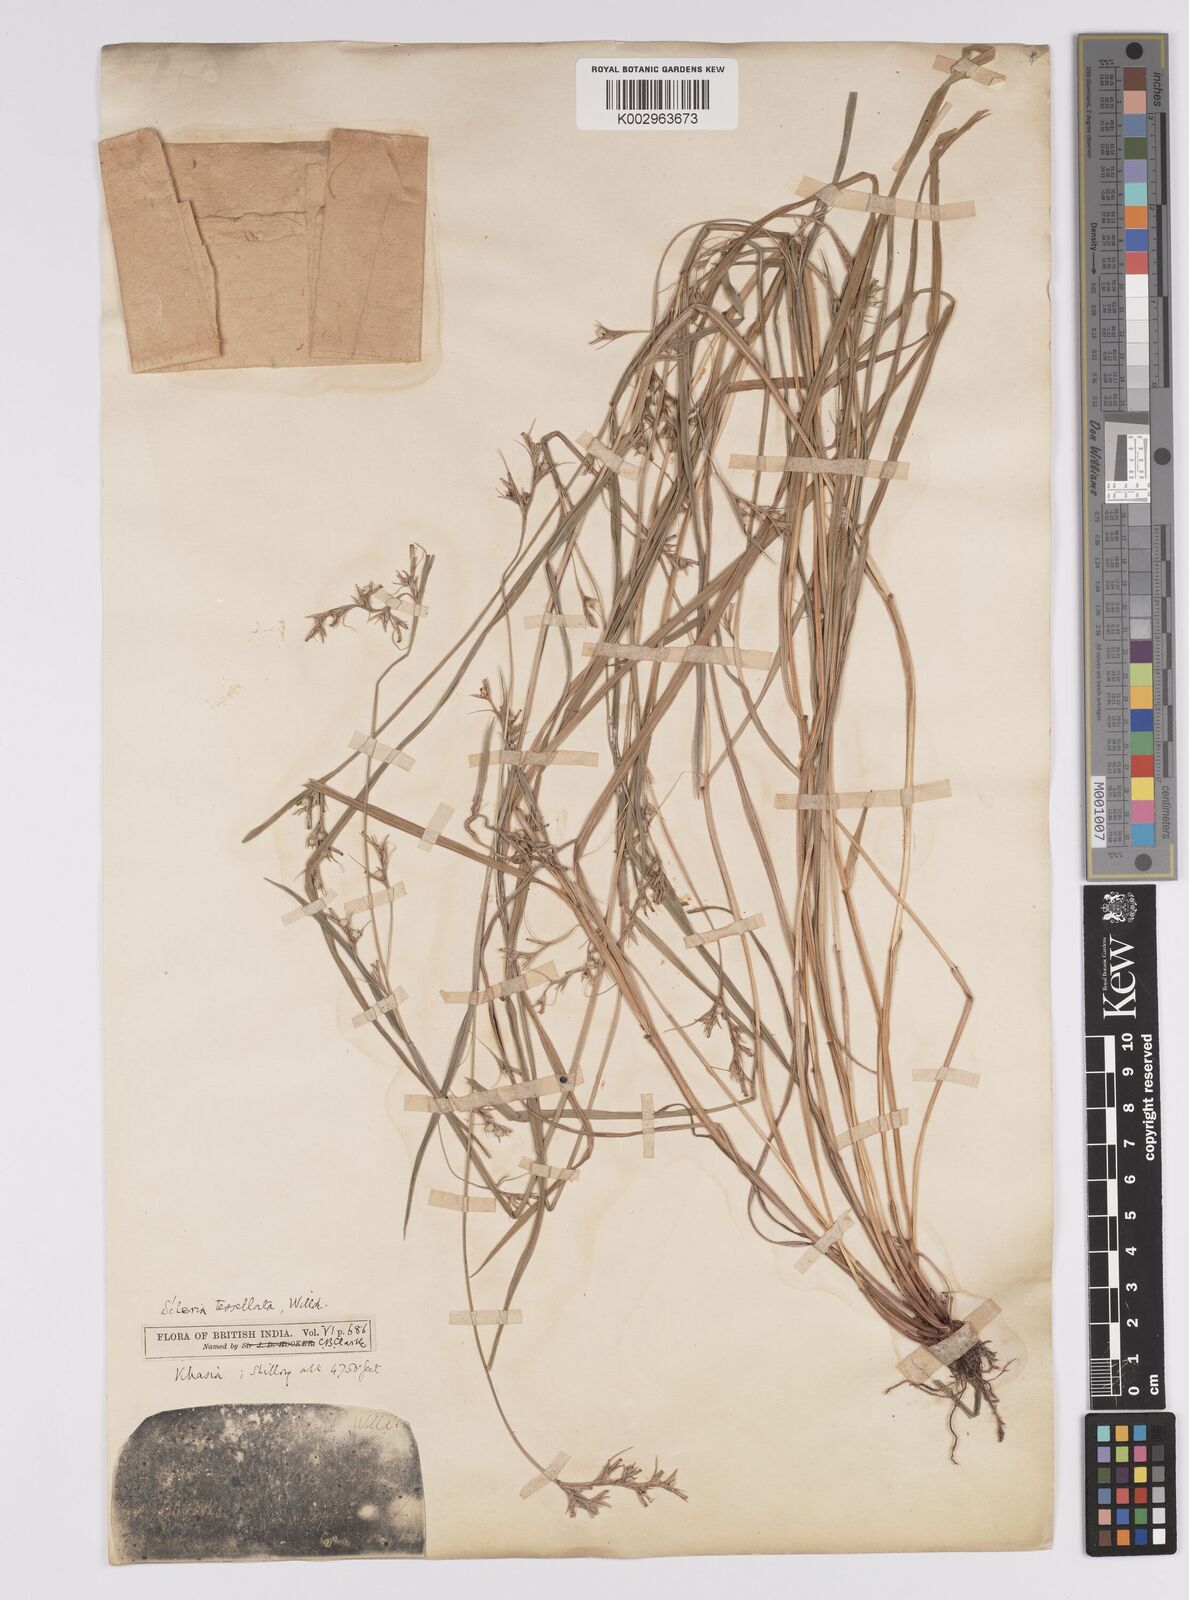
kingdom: Plantae
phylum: Tracheophyta
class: Liliopsida
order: Poales
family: Cyperaceae
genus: Scleria
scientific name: Scleria parvula
